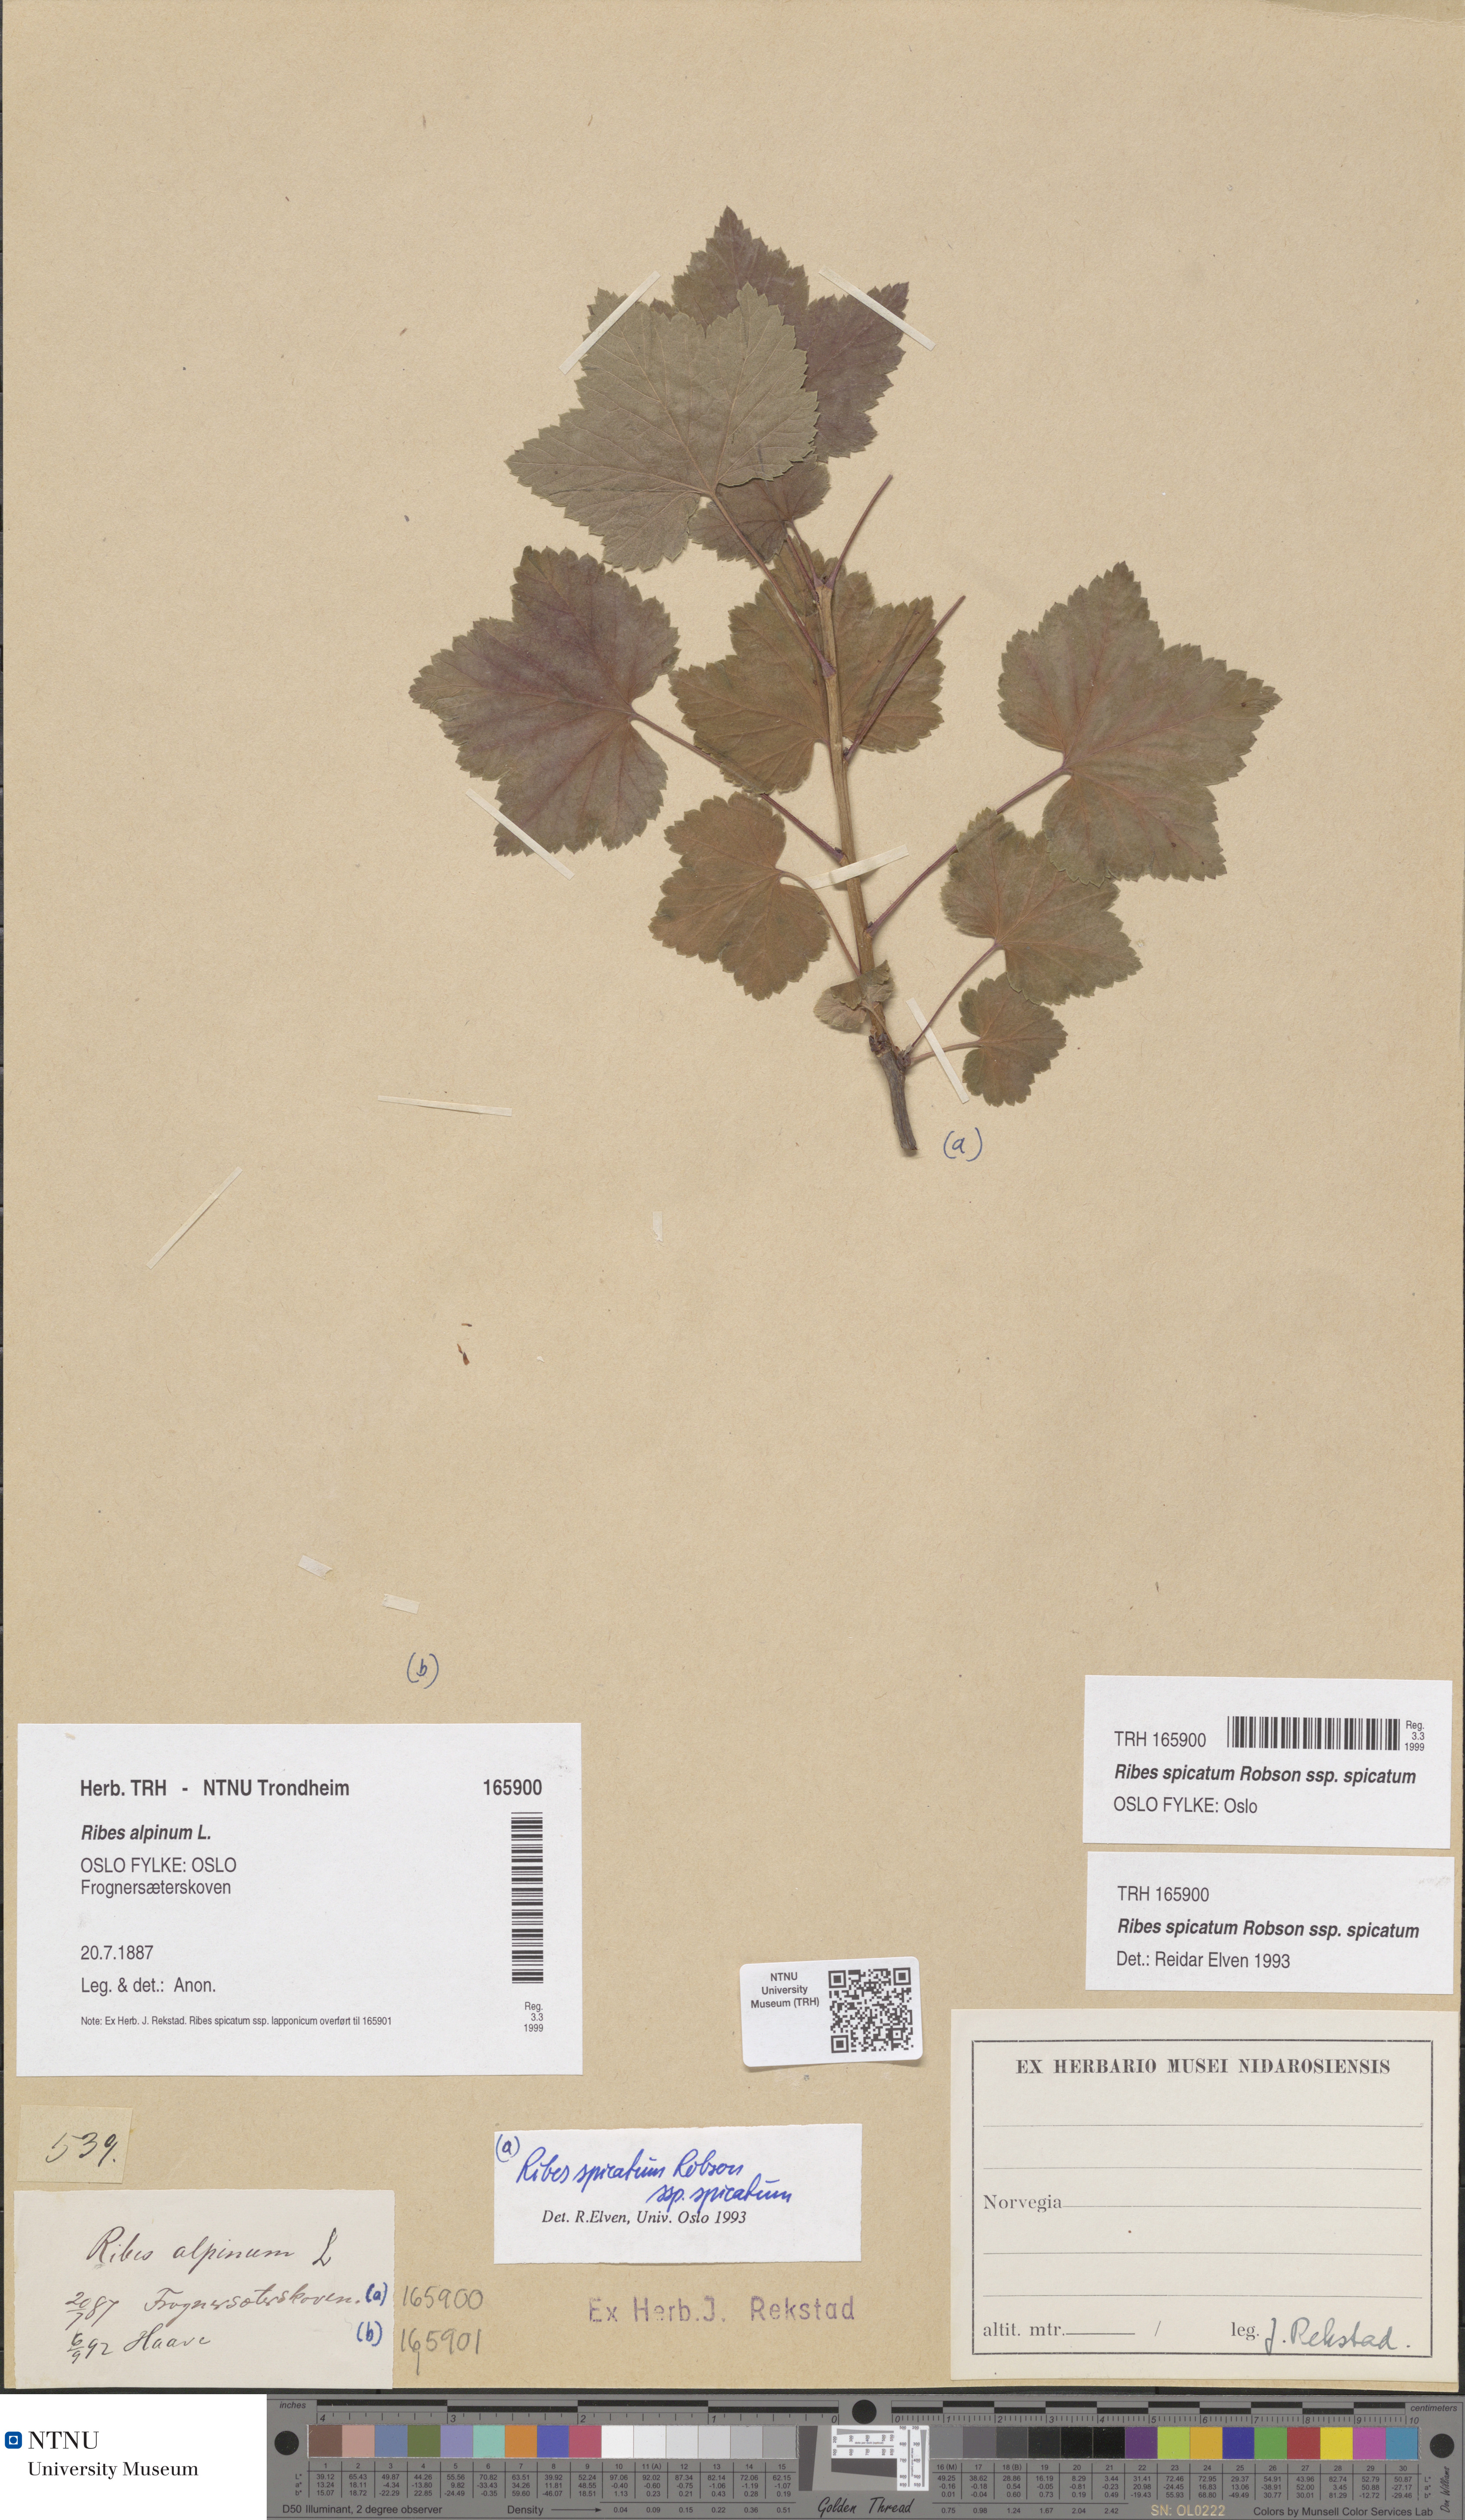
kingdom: Plantae
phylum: Tracheophyta
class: Magnoliopsida
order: Saxifragales
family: Grossulariaceae
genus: Ribes
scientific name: Ribes spicatum
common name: Downy currant
